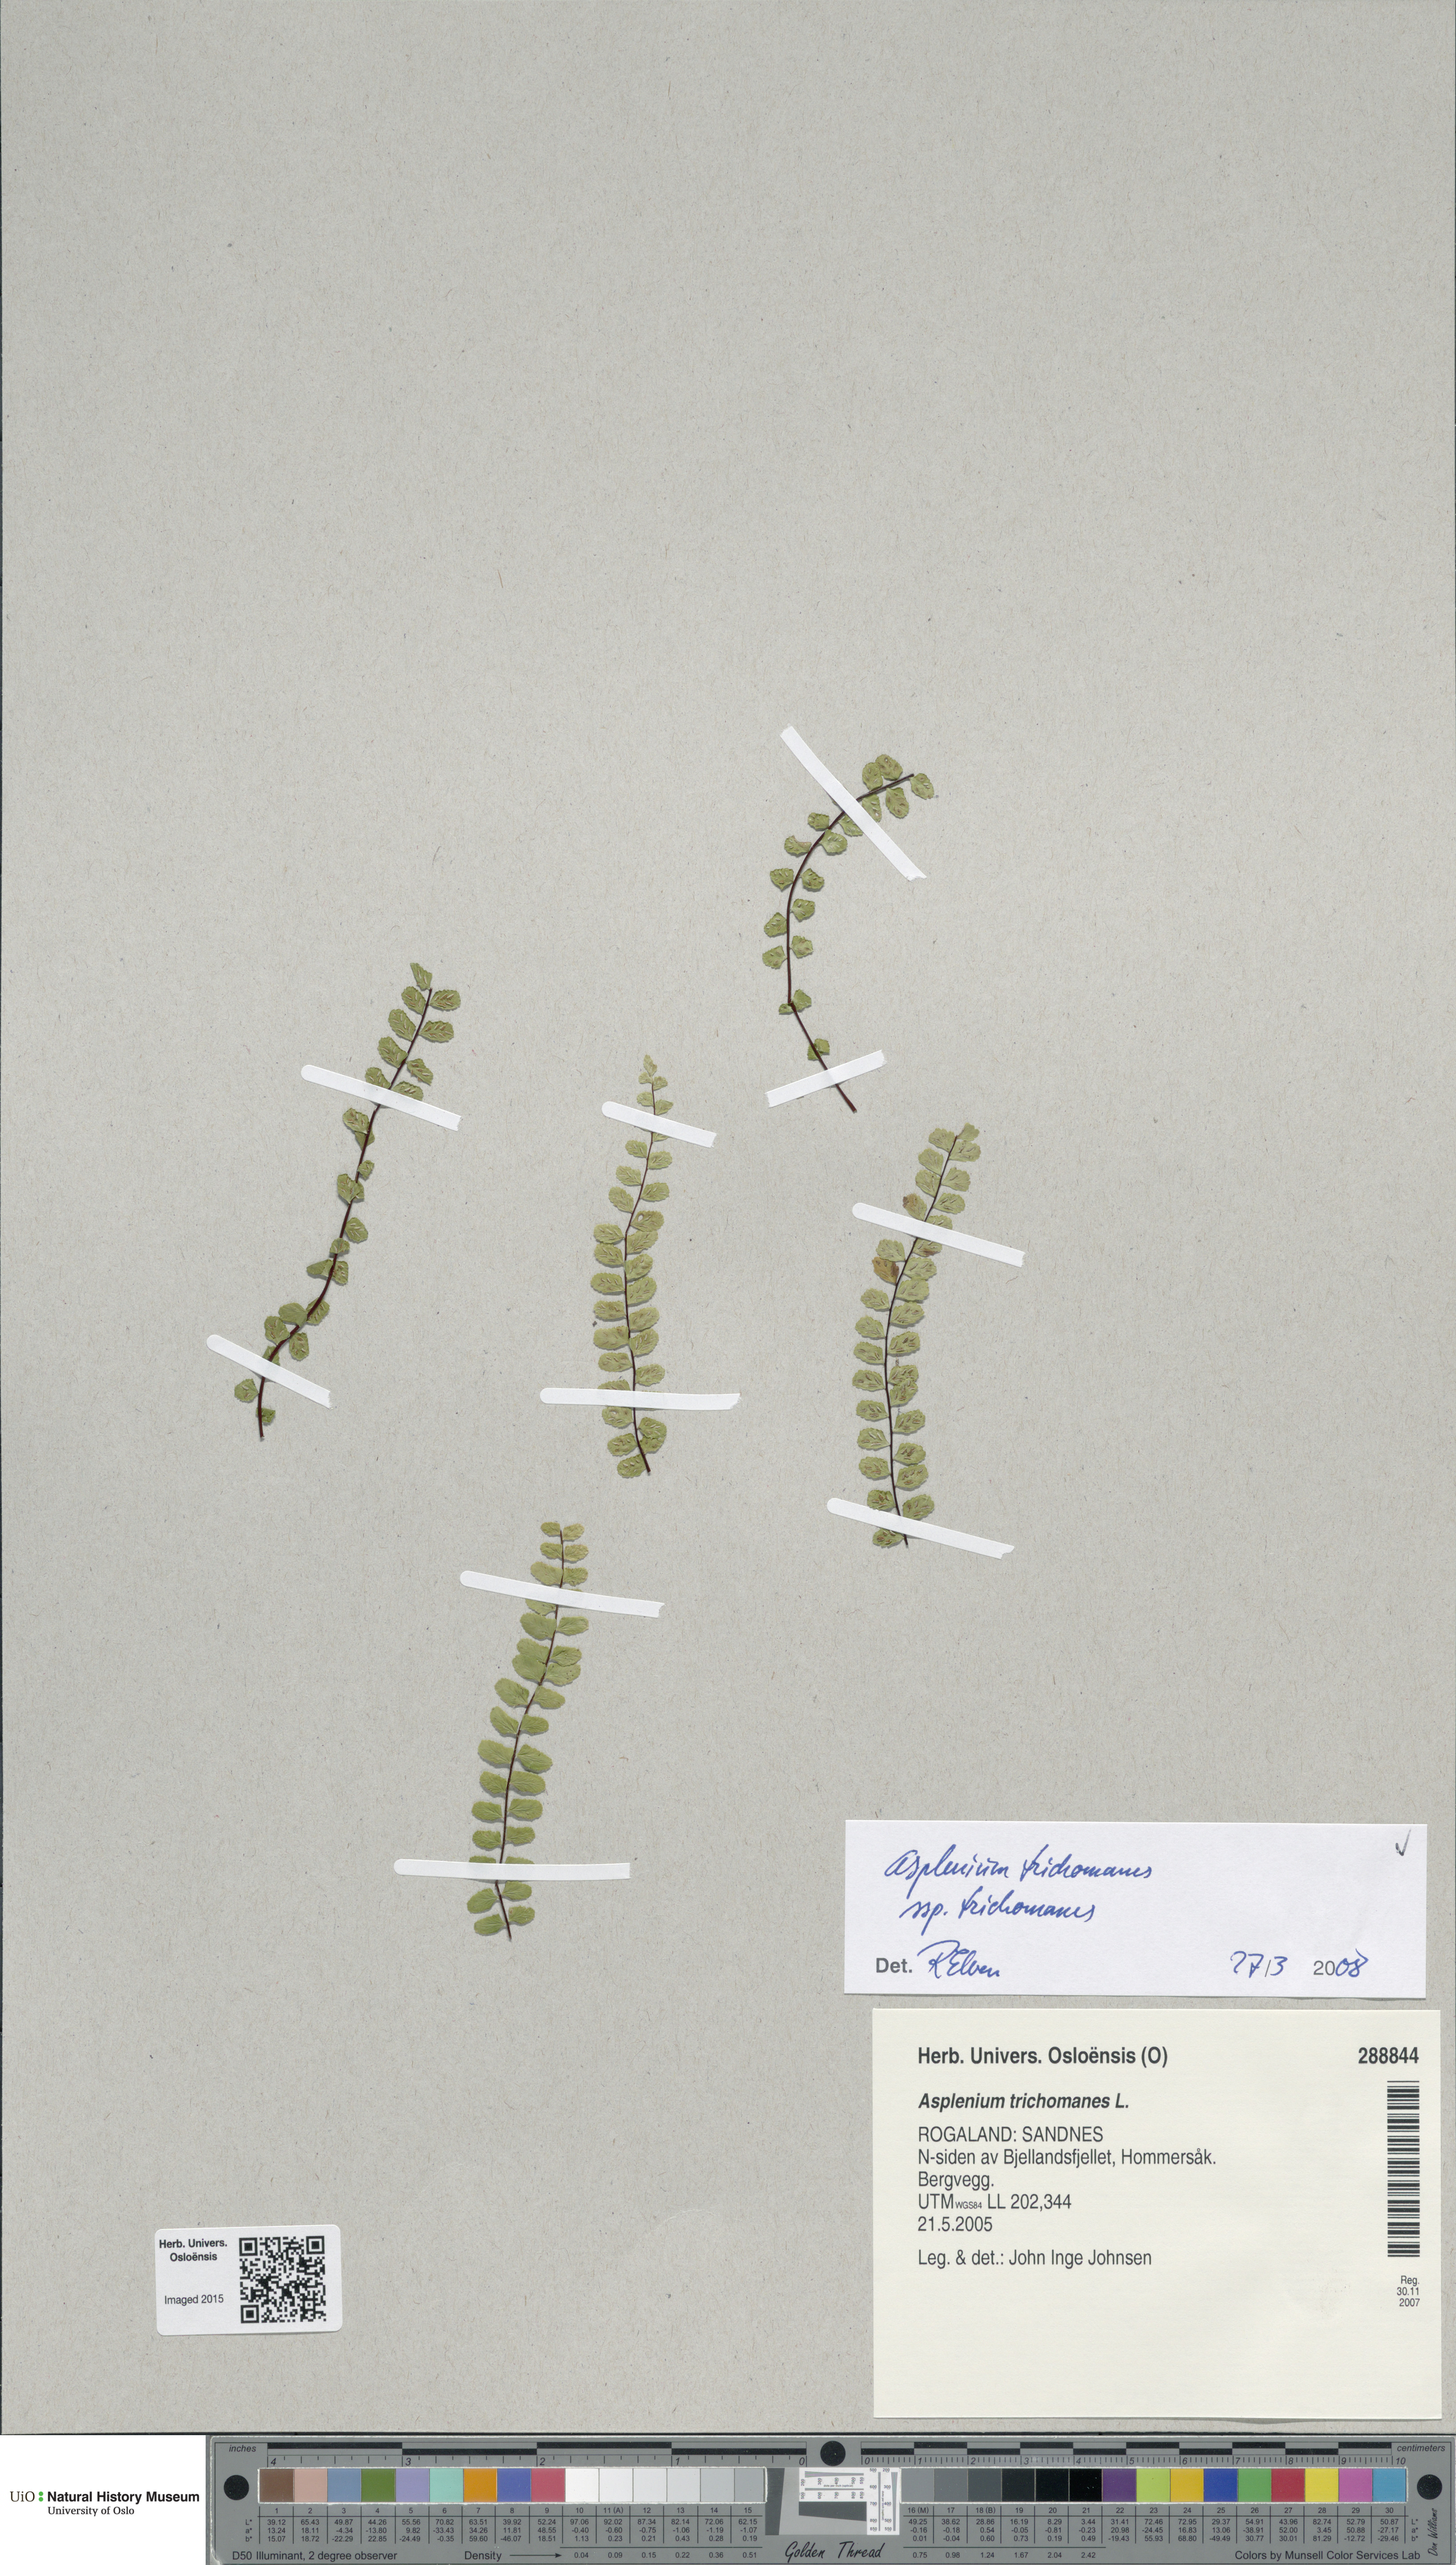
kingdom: Plantae
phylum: Tracheophyta
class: Polypodiopsida
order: Polypodiales
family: Aspleniaceae
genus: Asplenium
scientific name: Asplenium trichomanes
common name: Maidenhair spleenwort
